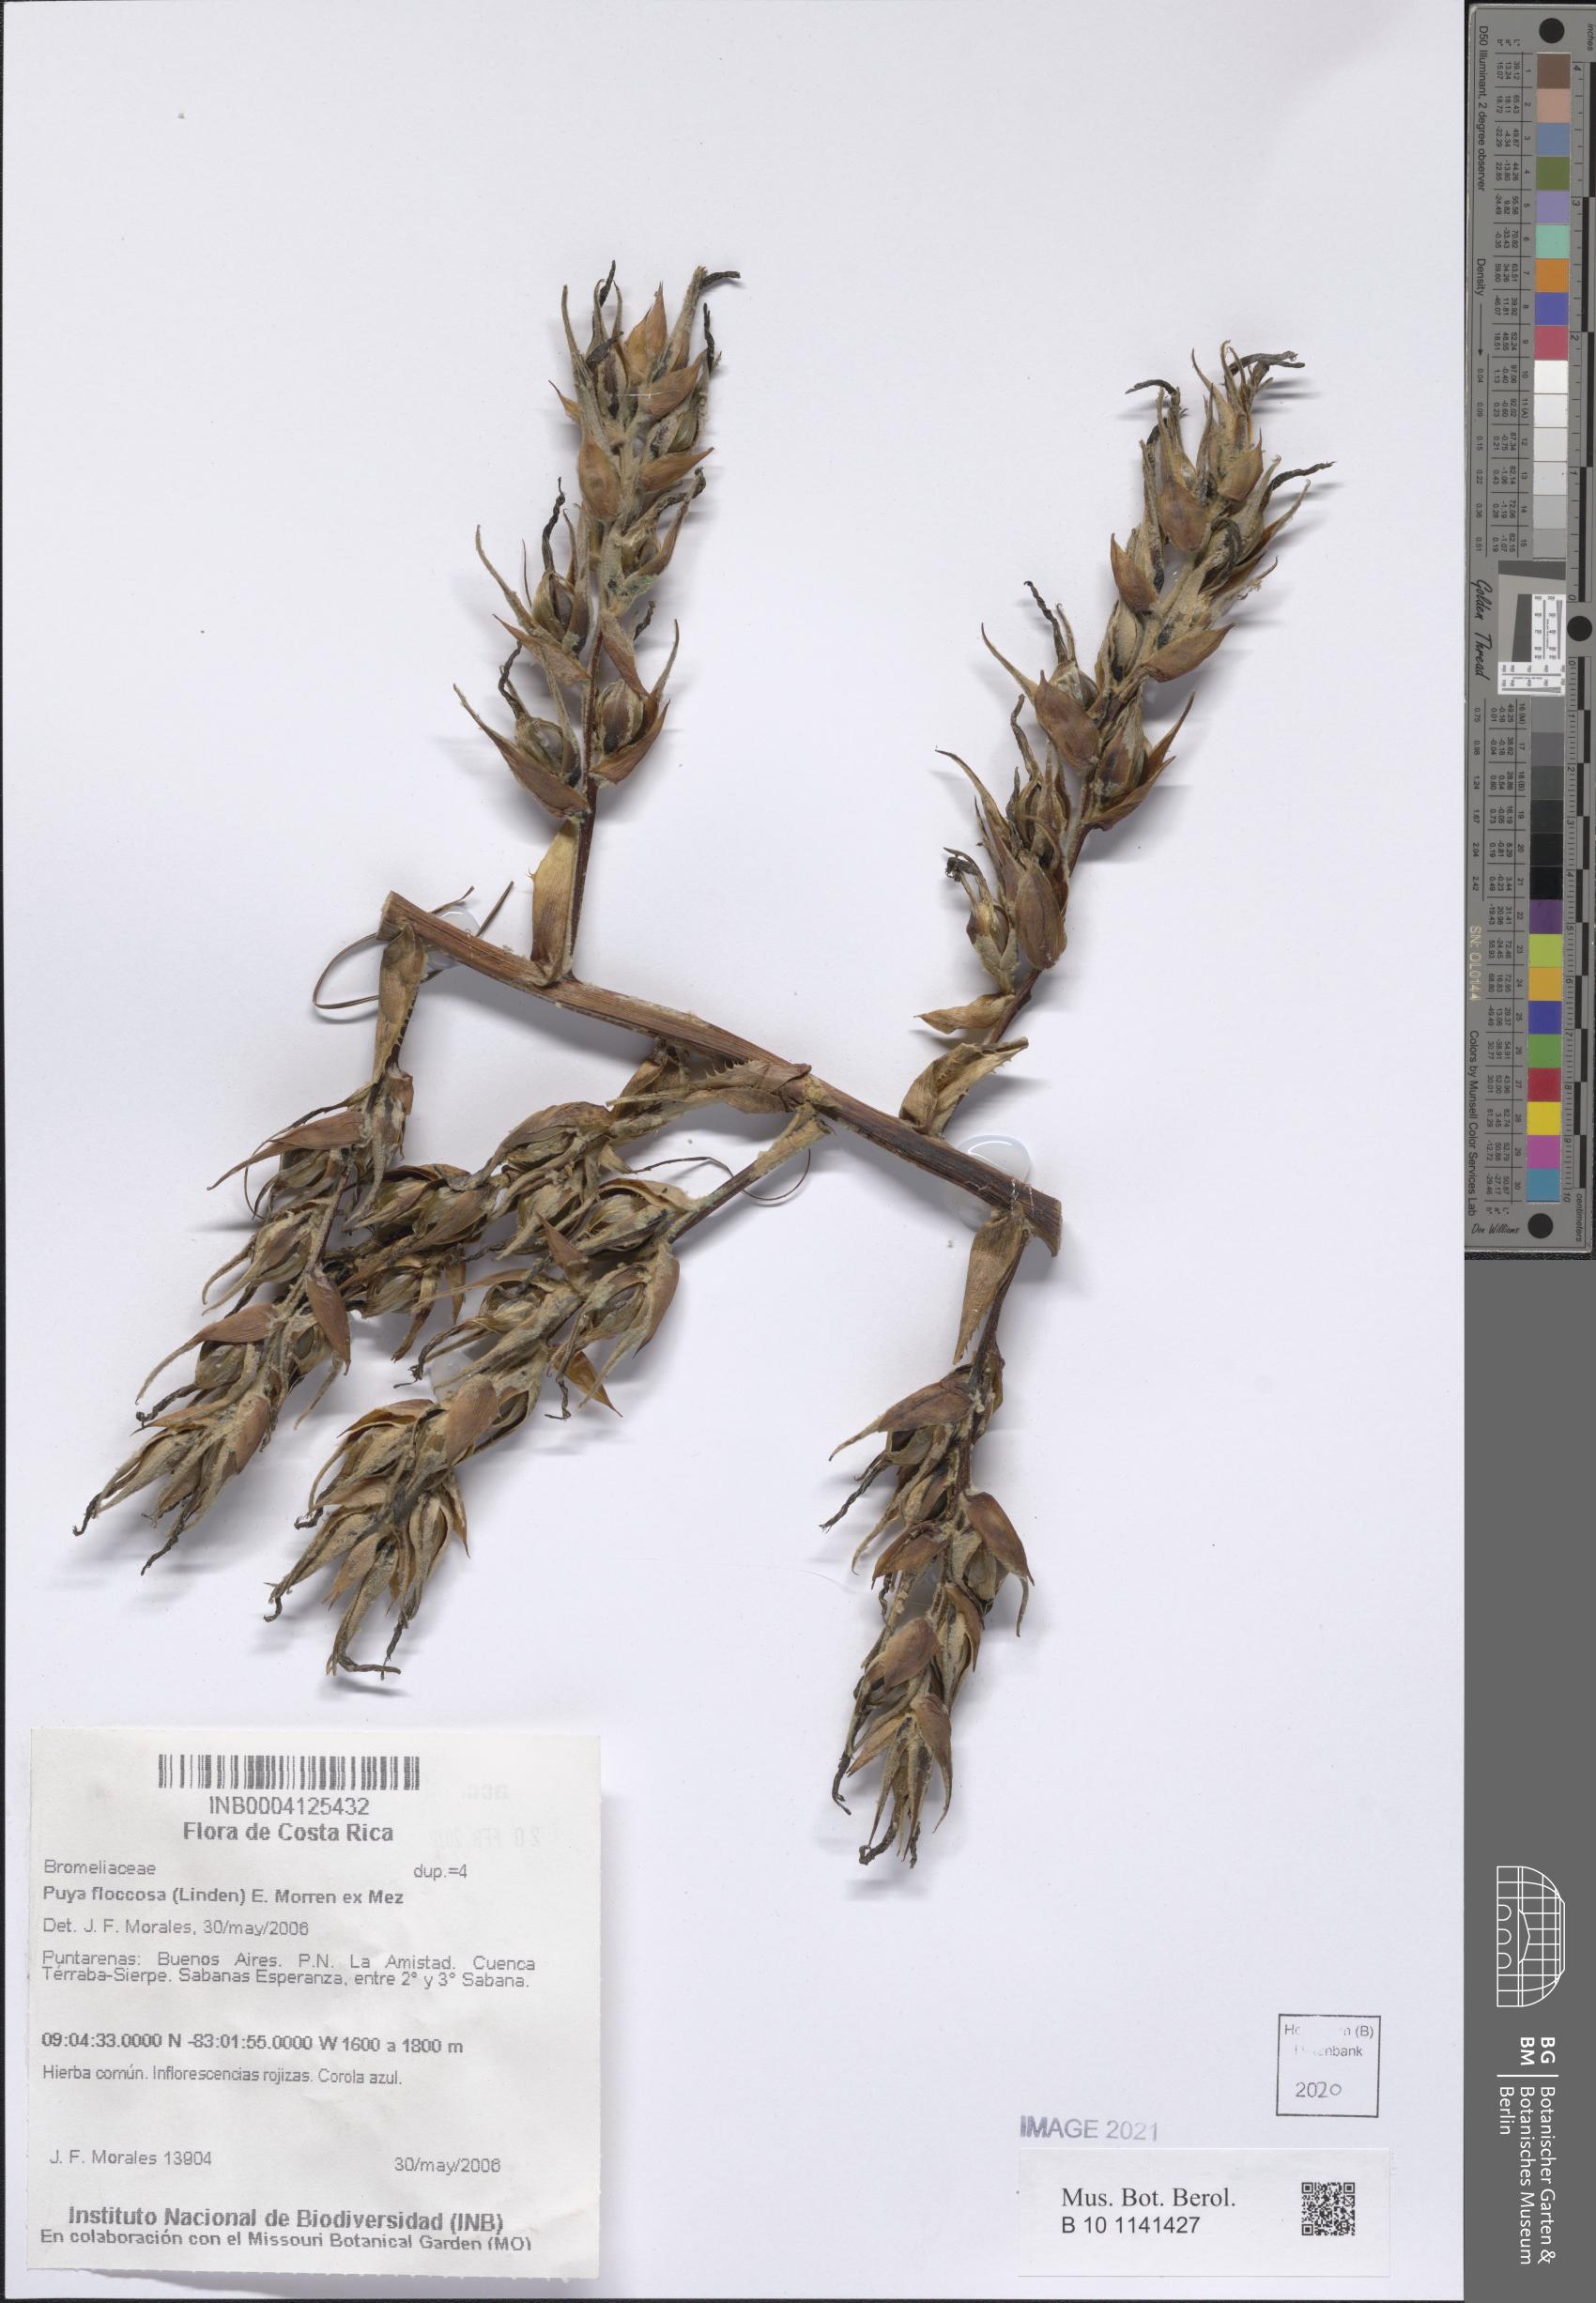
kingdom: Plantae
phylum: Tracheophyta
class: Liliopsida
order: Poales
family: Bromeliaceae
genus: Puya
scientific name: Puya floccosa
